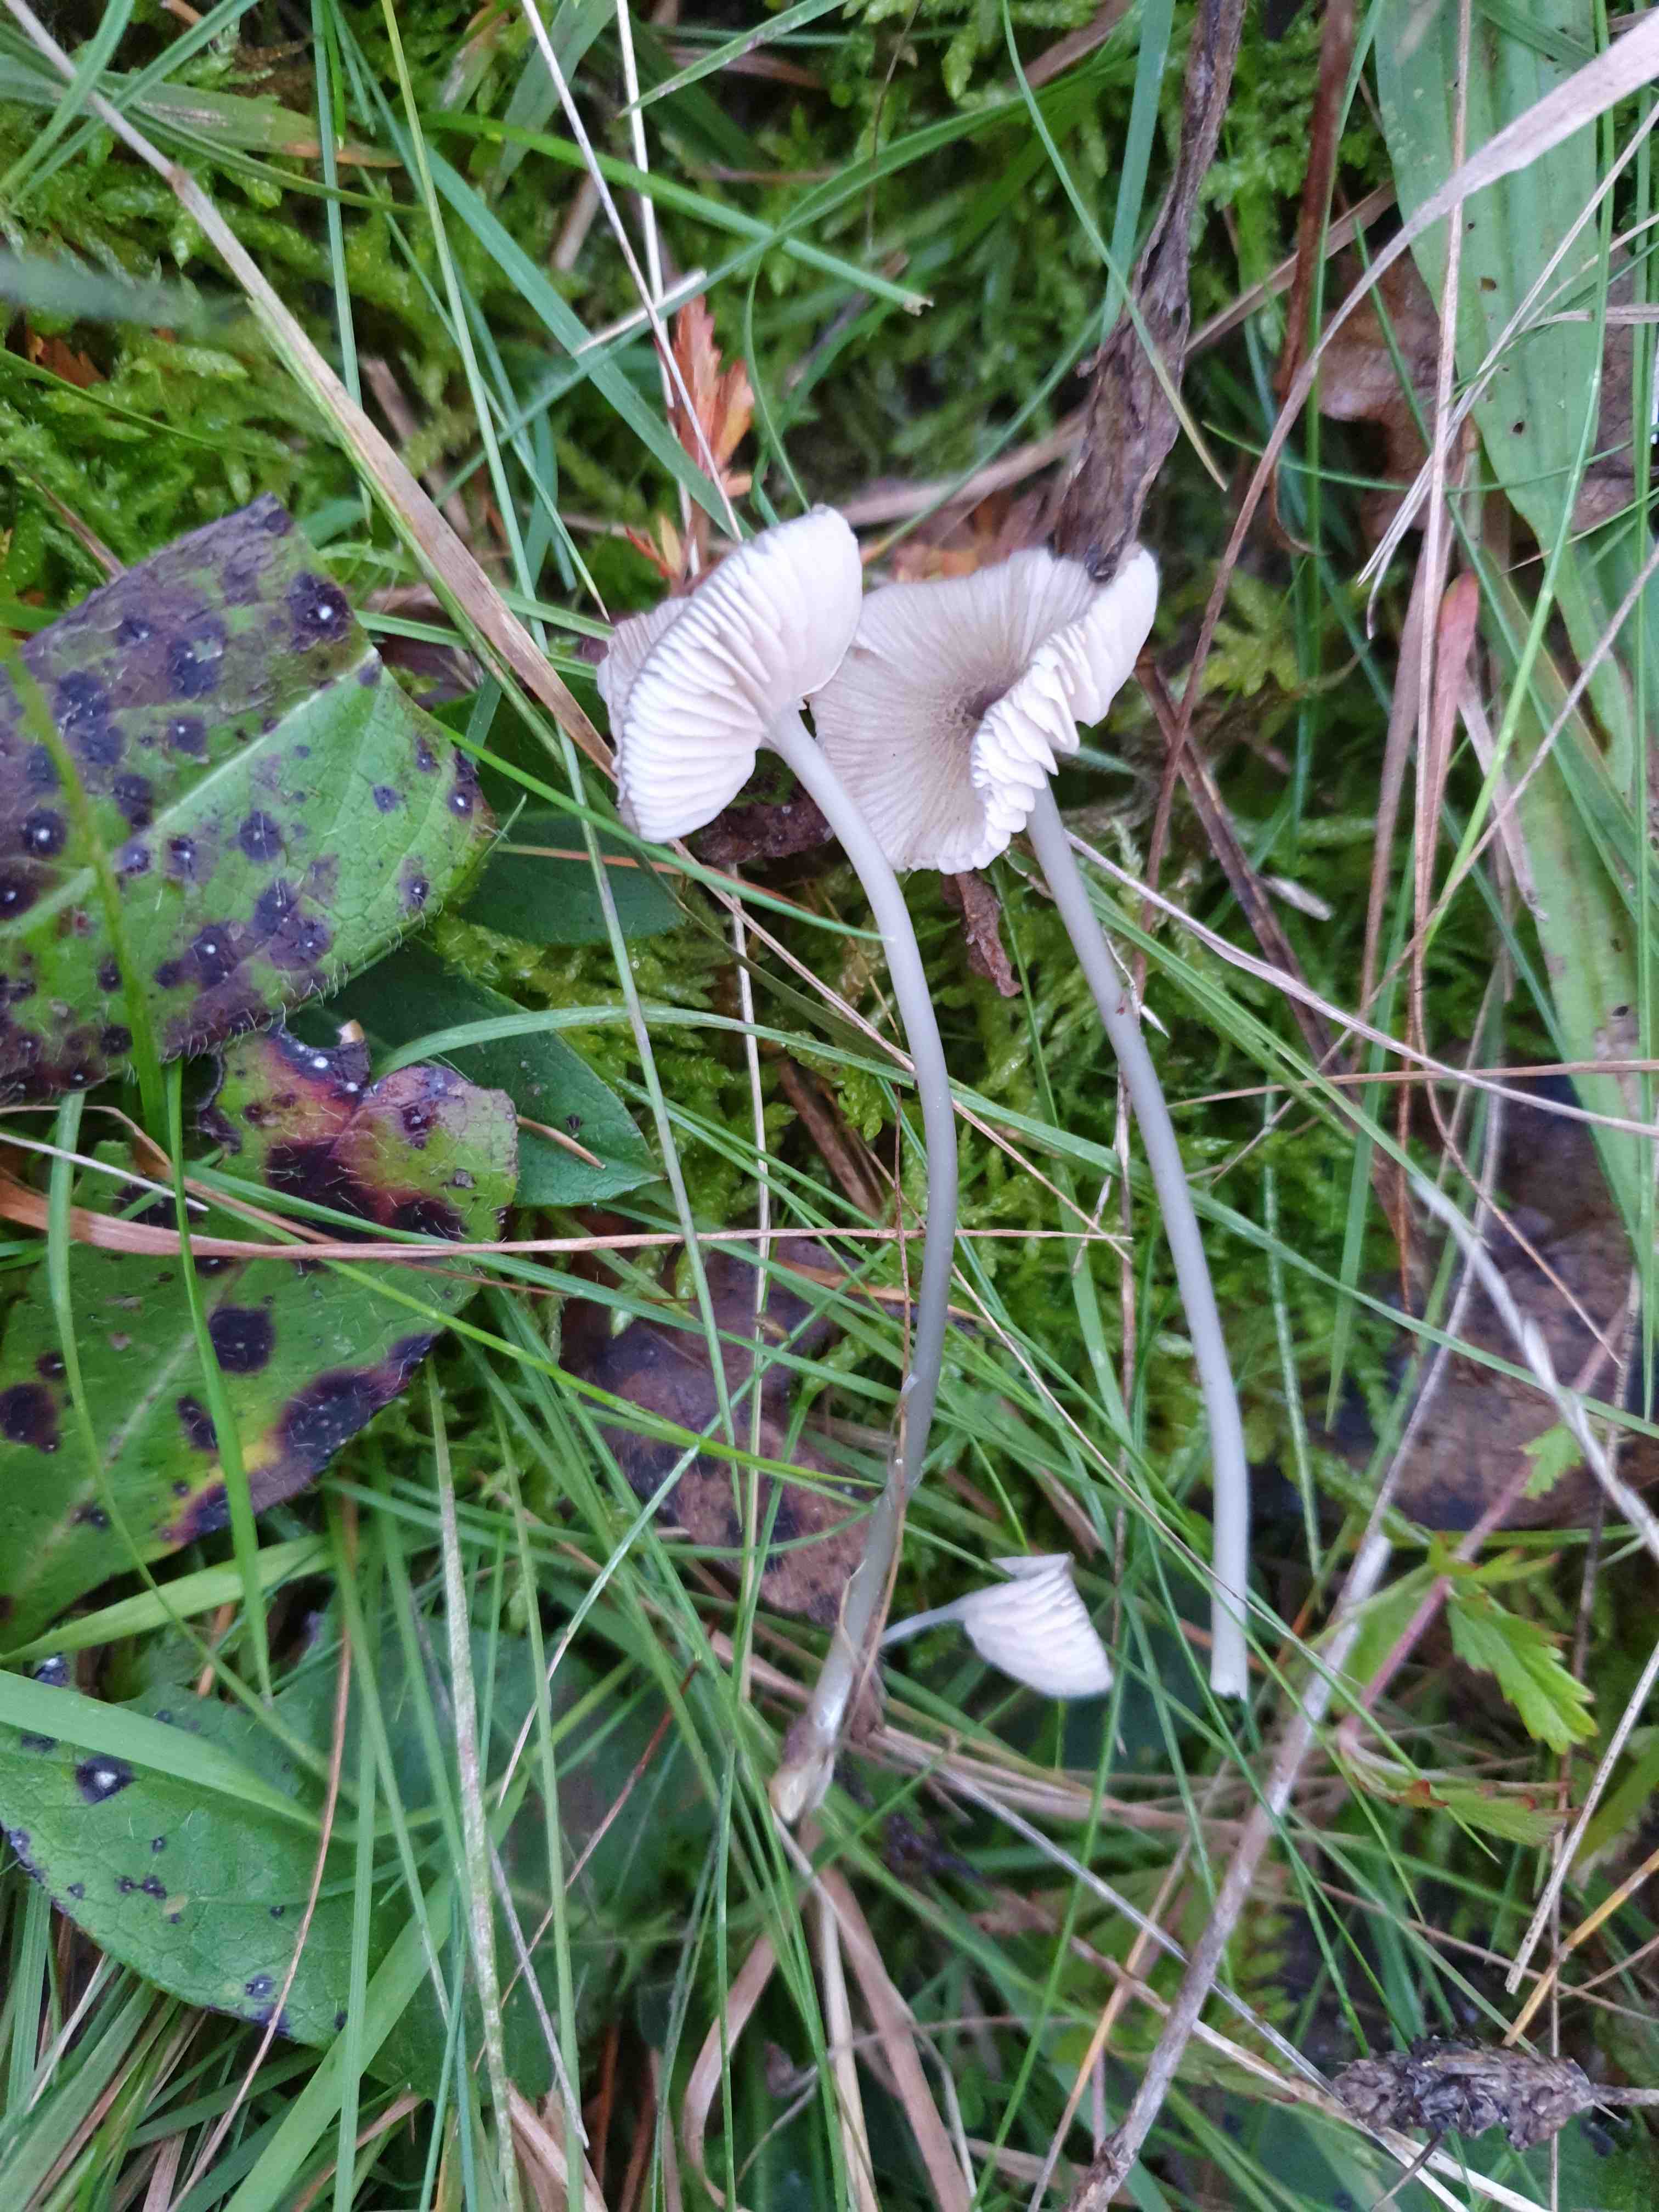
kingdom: Fungi
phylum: Basidiomycota
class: Agaricomycetes
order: Agaricales
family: Entolomataceae
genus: Entoloma
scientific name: Entoloma exile
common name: rødplettet rødblad
